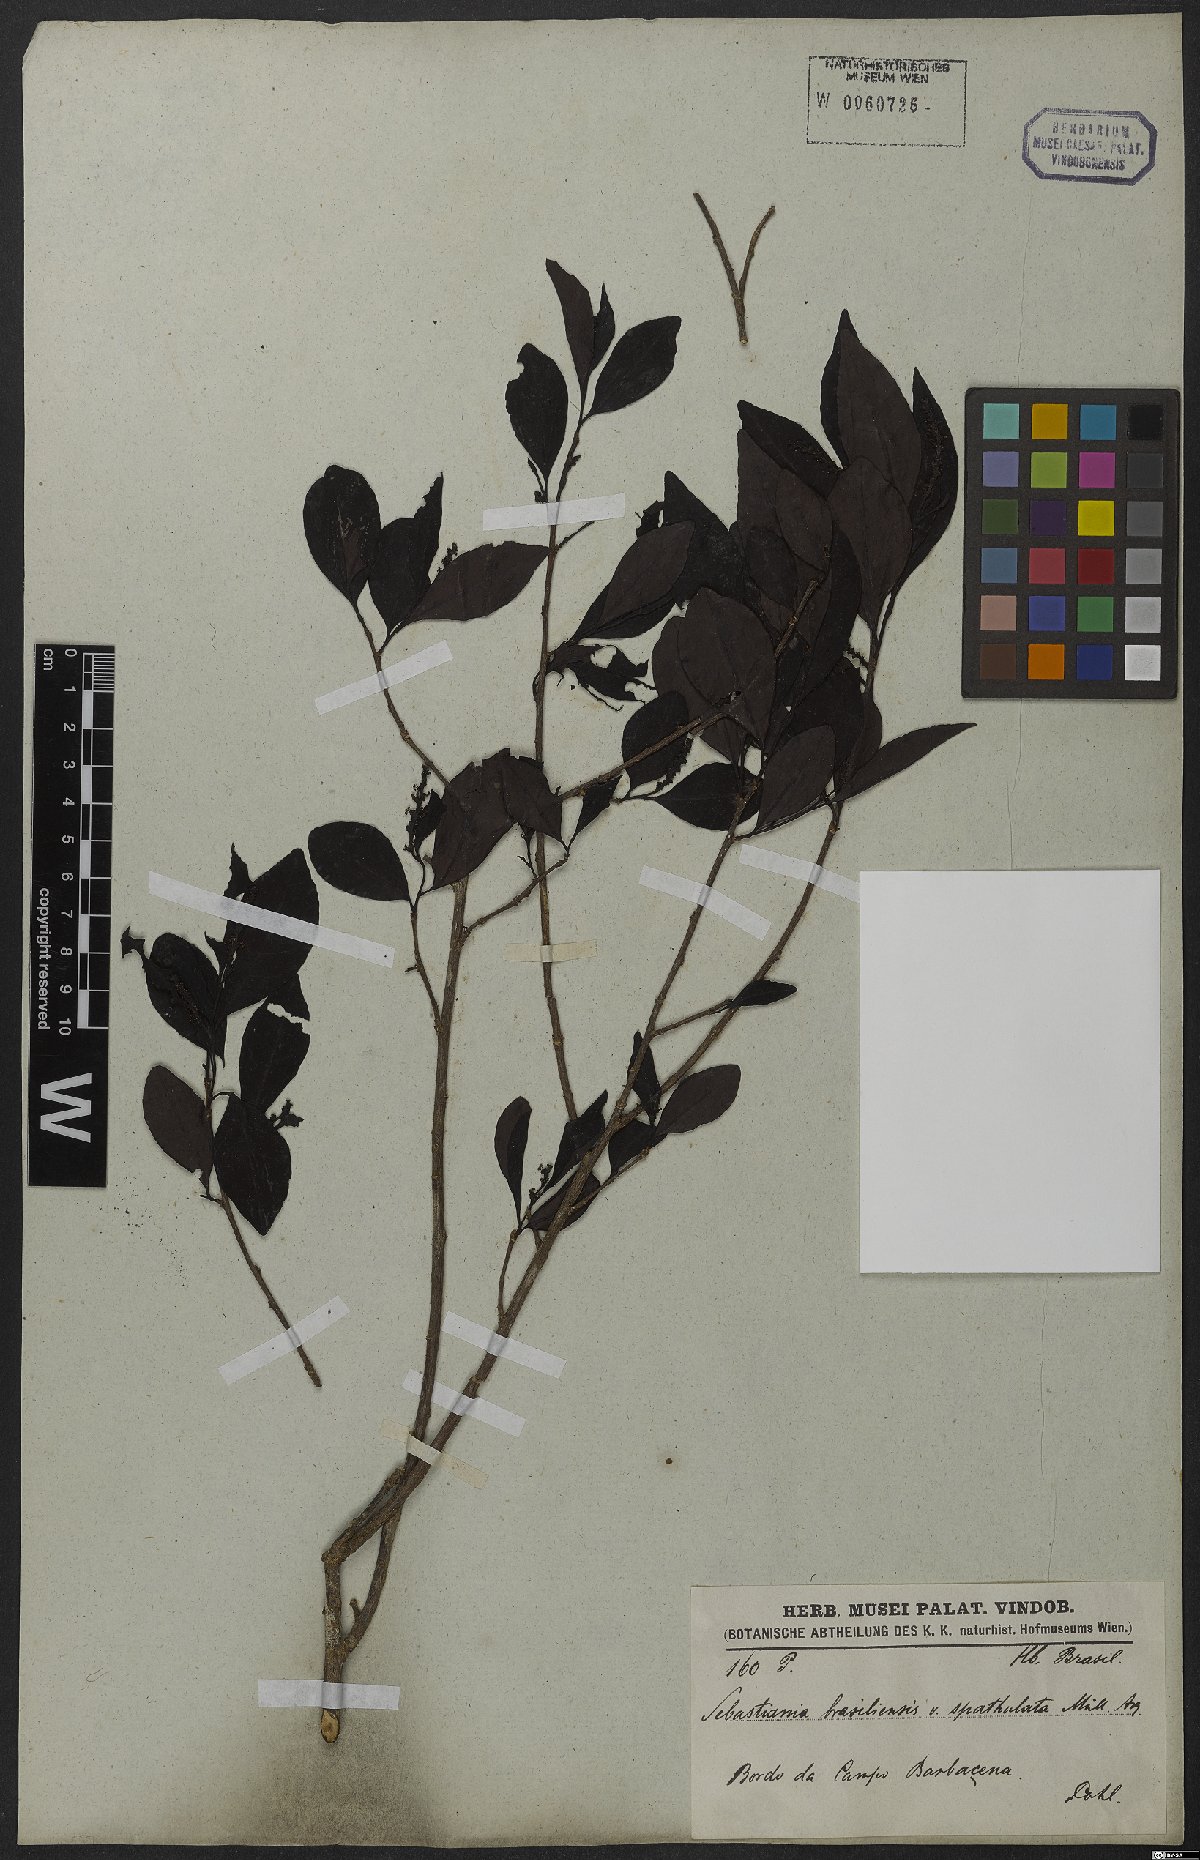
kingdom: Plantae
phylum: Tracheophyta
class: Magnoliopsida
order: Malpighiales
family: Euphorbiaceae
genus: Sebastiania
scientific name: Sebastiania ramosissima
